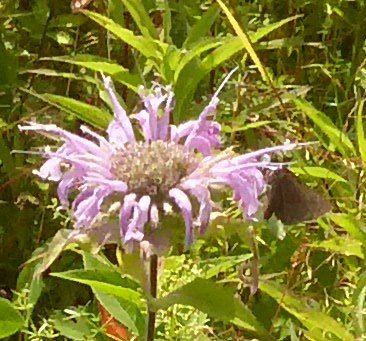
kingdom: Animalia
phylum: Arthropoda
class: Insecta
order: Lepidoptera
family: Hesperiidae
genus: Euphyes
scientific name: Euphyes vestris
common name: Dun Skipper
